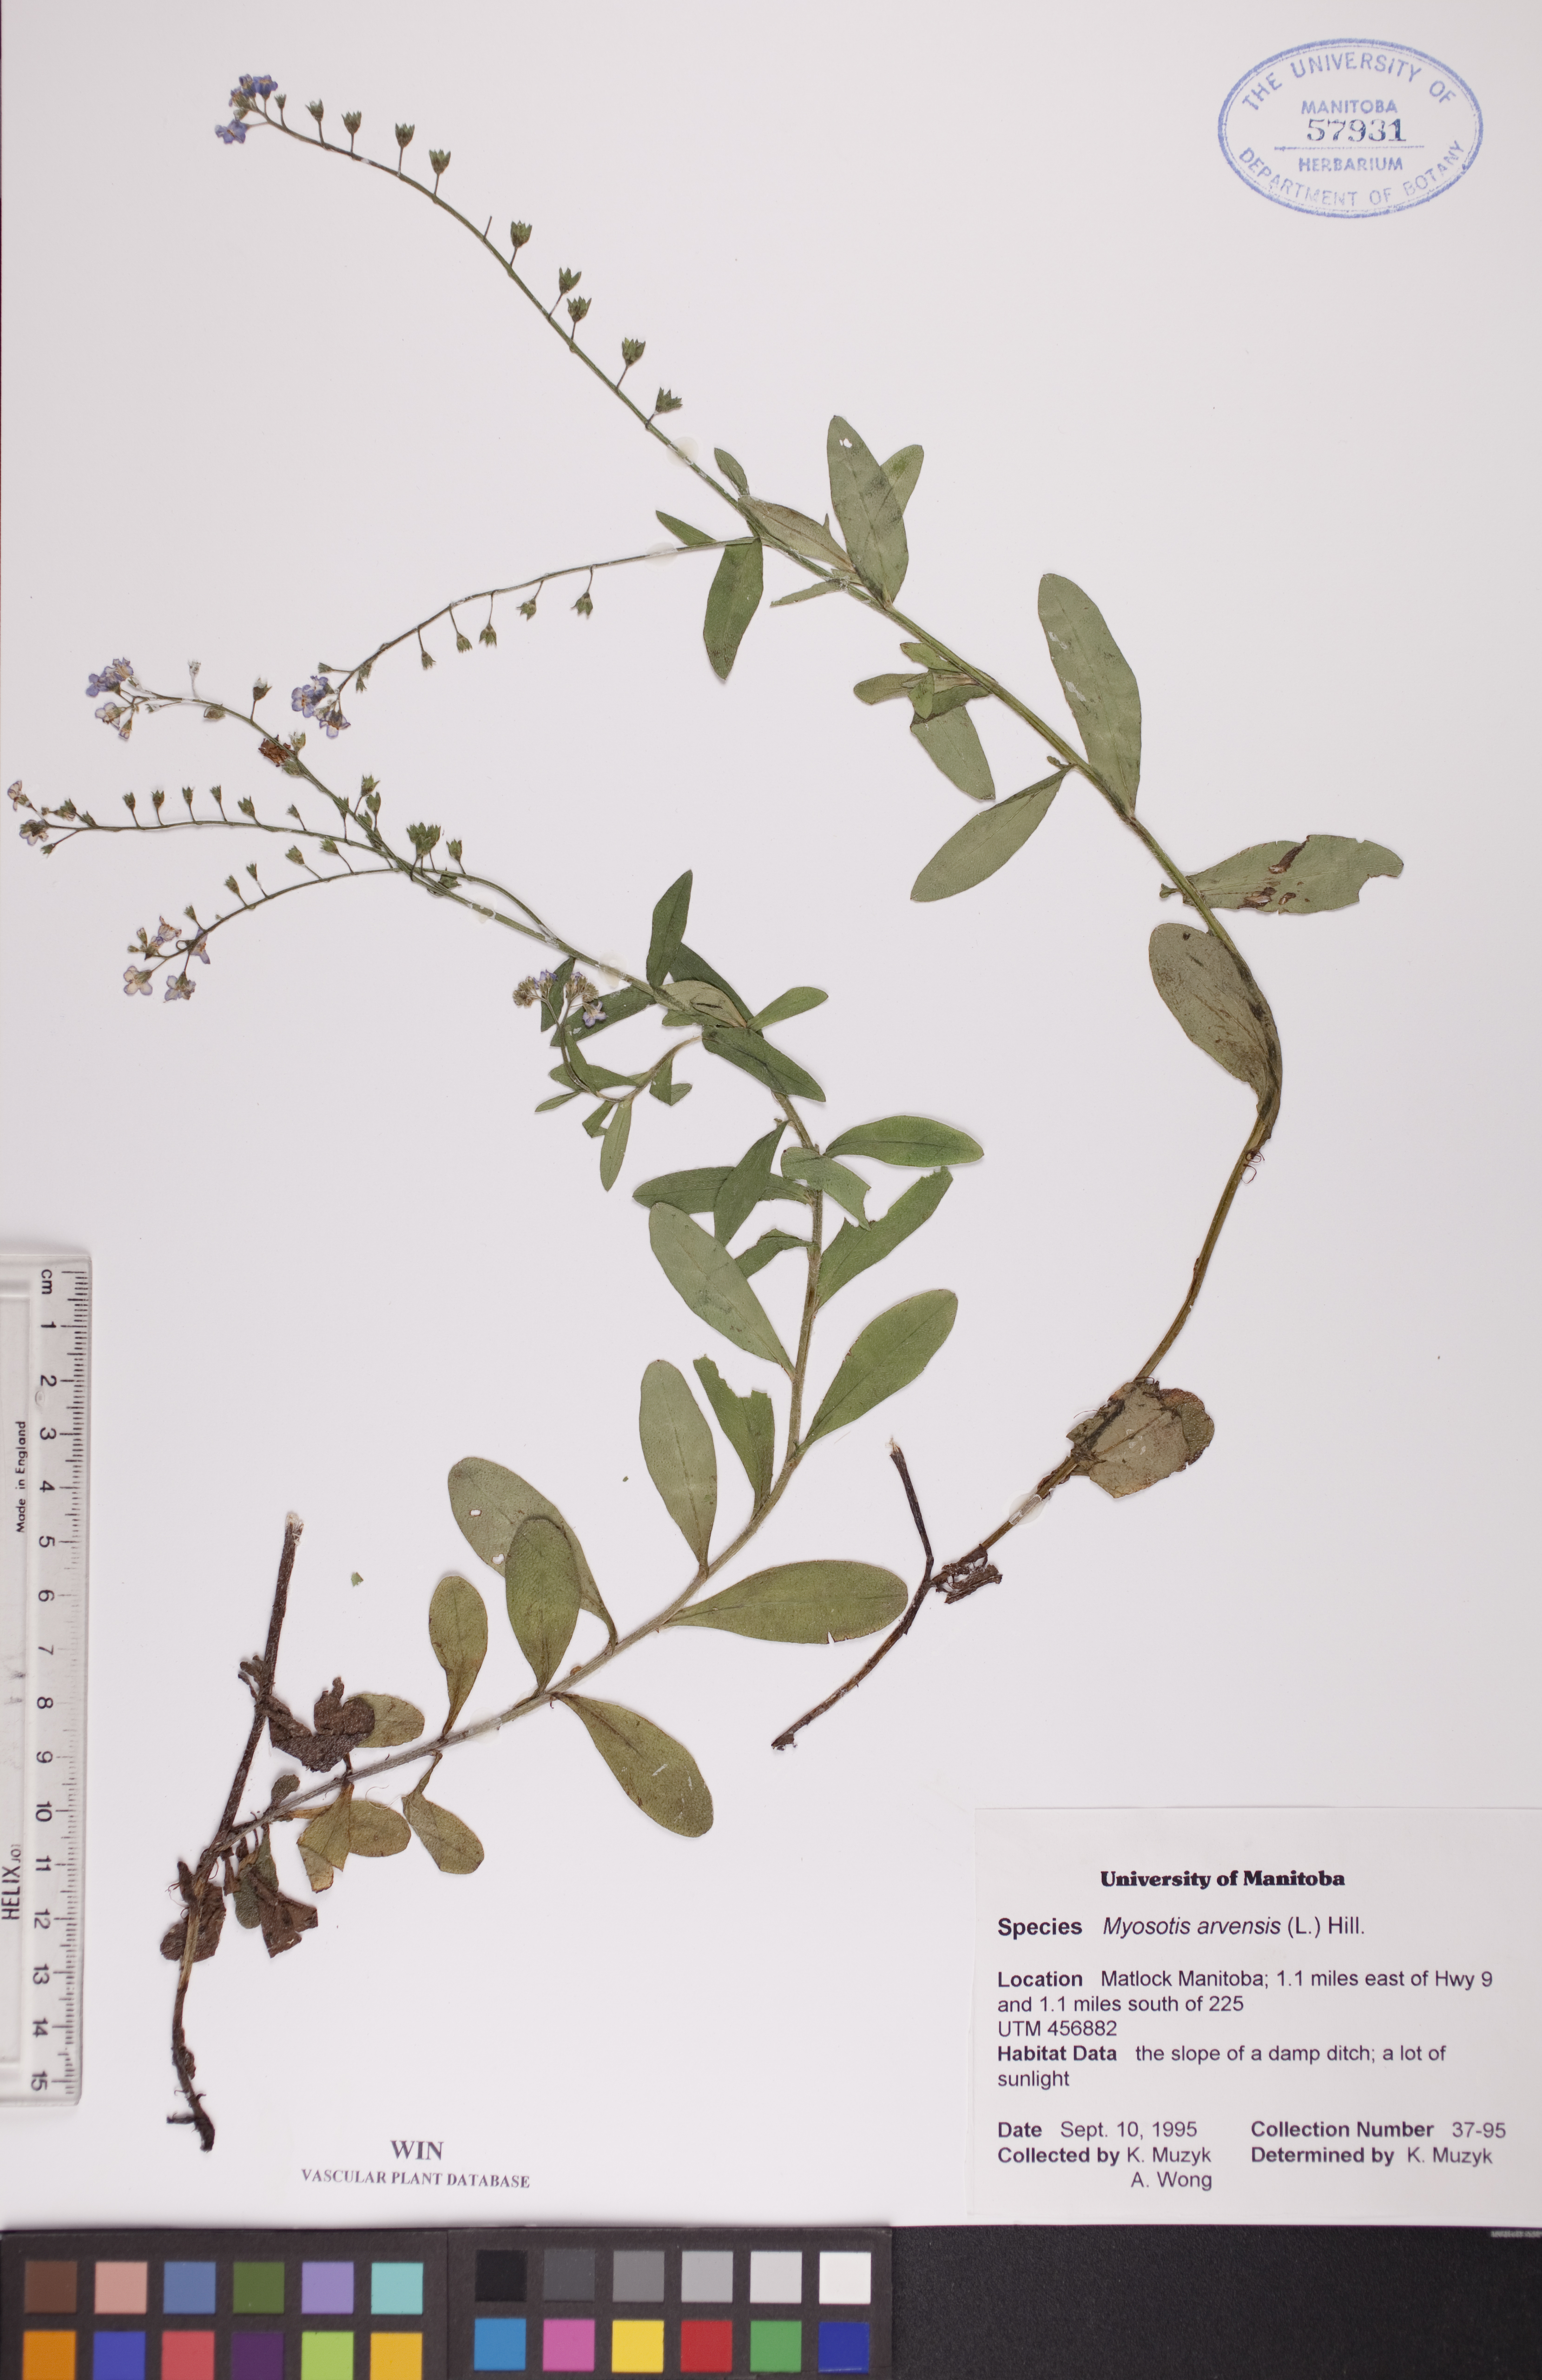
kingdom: Plantae
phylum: Tracheophyta
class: Magnoliopsida
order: Boraginales
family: Boraginaceae
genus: Myosotis
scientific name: Myosotis arvensis
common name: Field forget-me-not
